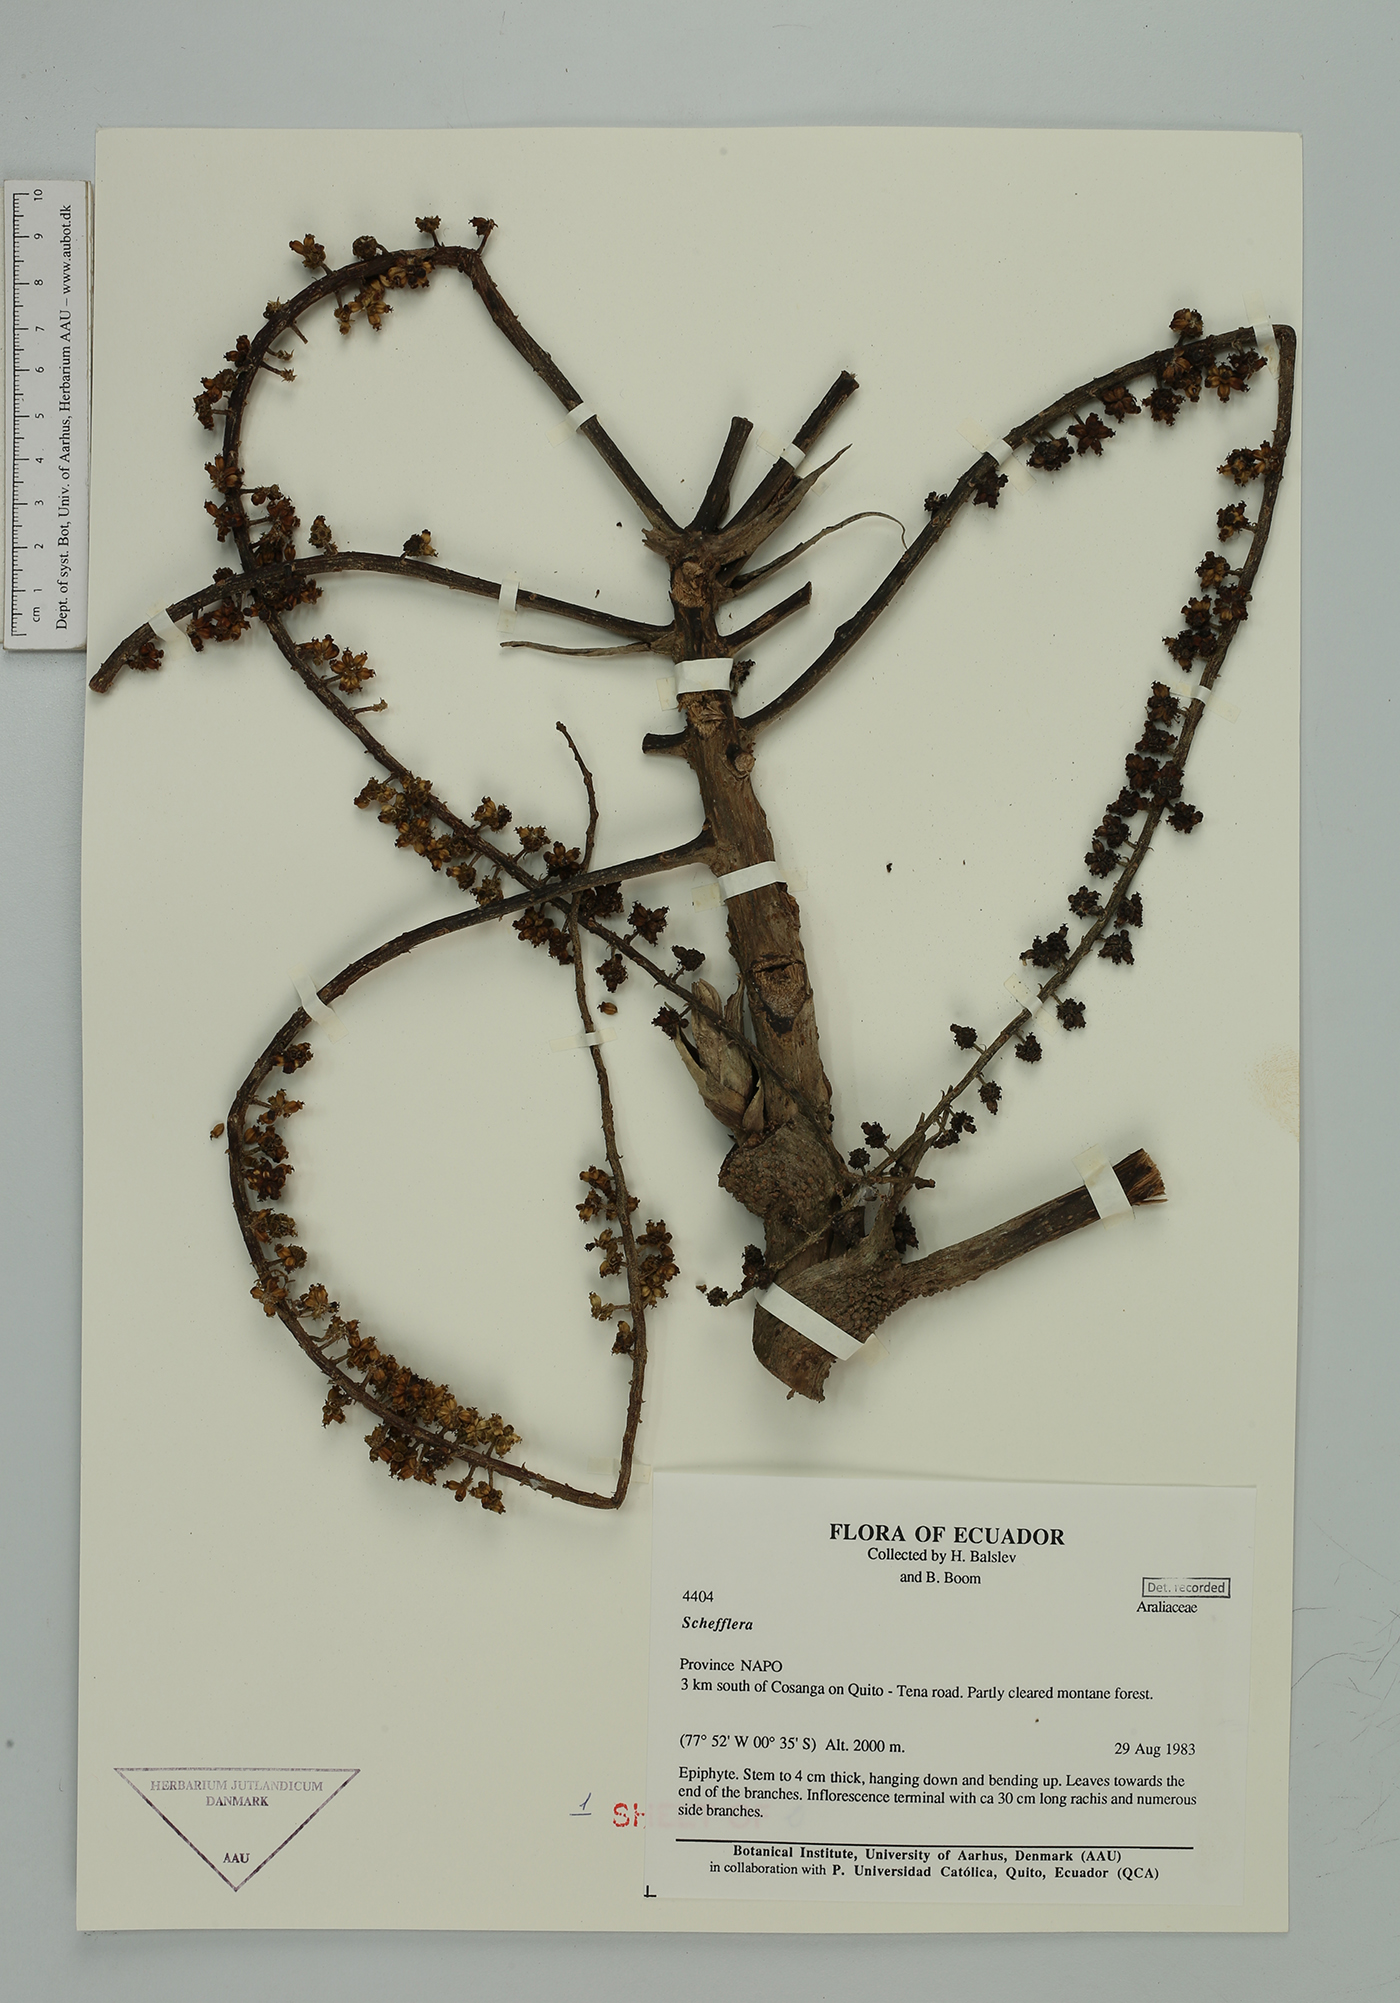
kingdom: Plantae
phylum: Tracheophyta
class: Magnoliopsida
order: Apiales
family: Araliaceae
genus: Sciodaphyllum
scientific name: Sciodaphyllum
